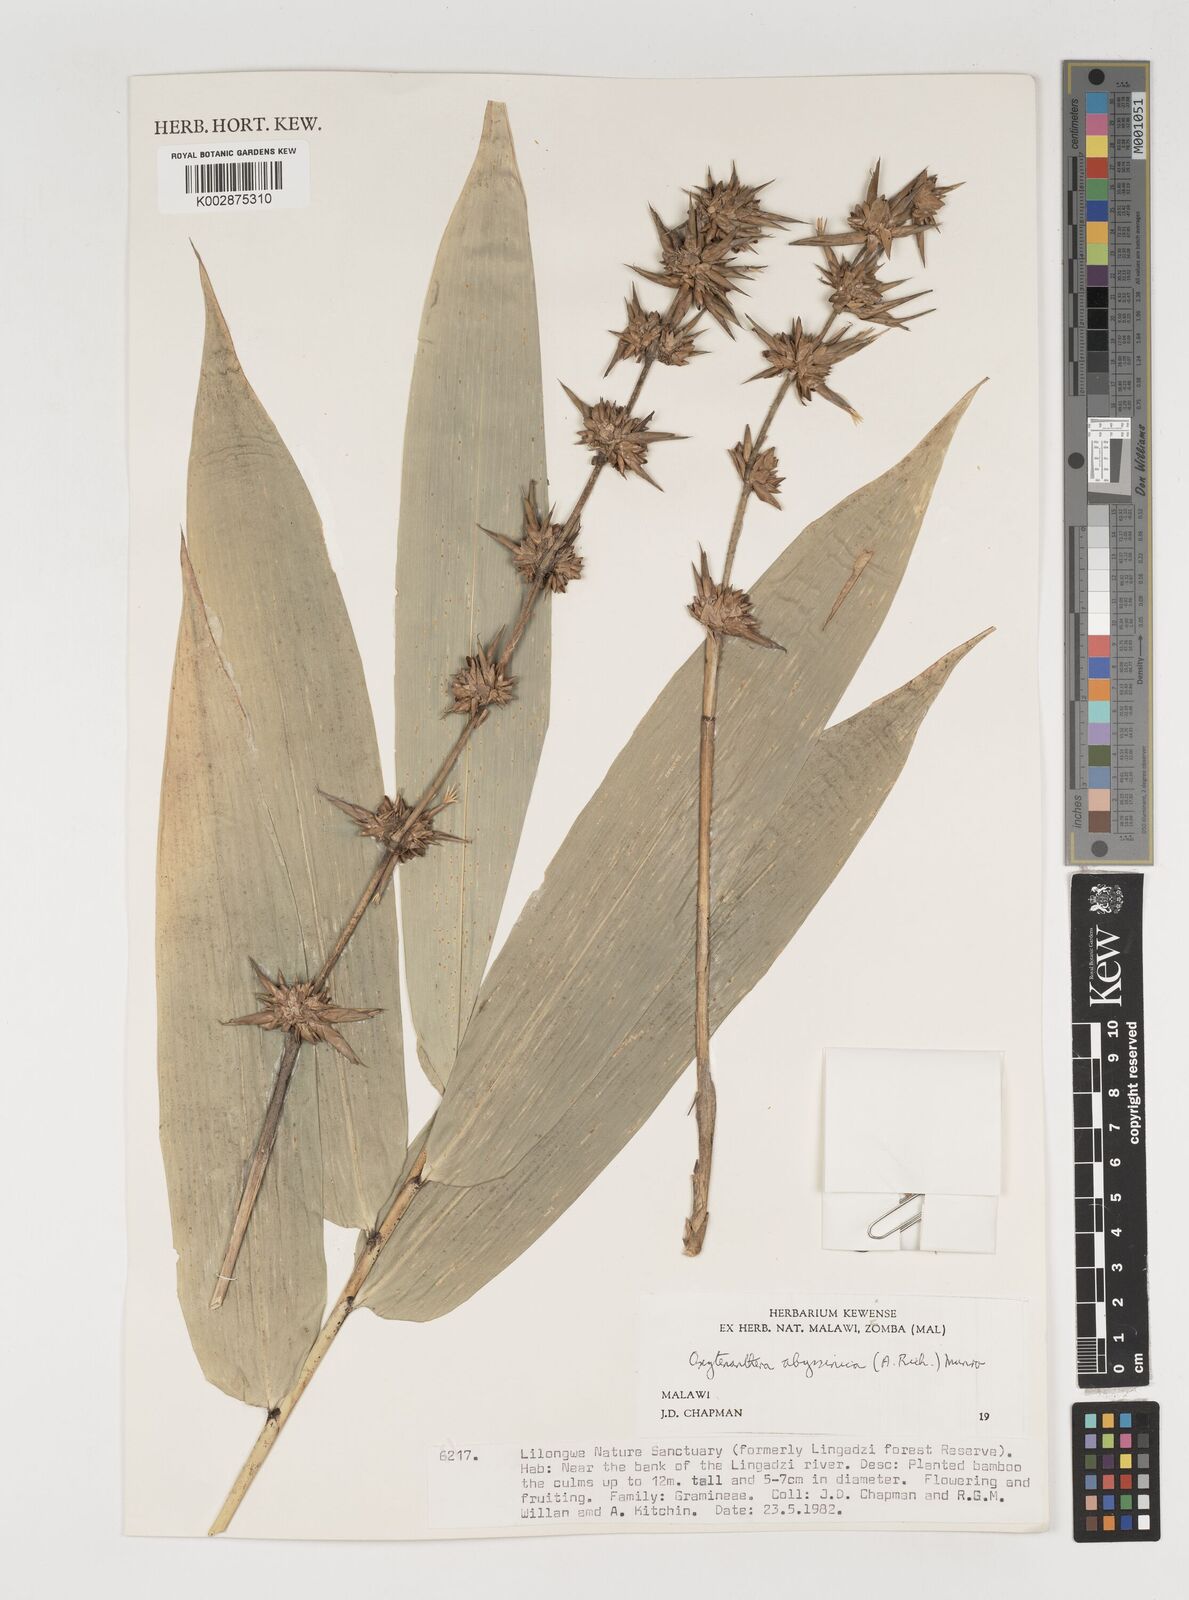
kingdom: Plantae
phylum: Tracheophyta
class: Liliopsida
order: Poales
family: Poaceae
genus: Oxytenanthera
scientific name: Oxytenanthera abyssinica
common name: Wine bamboo
